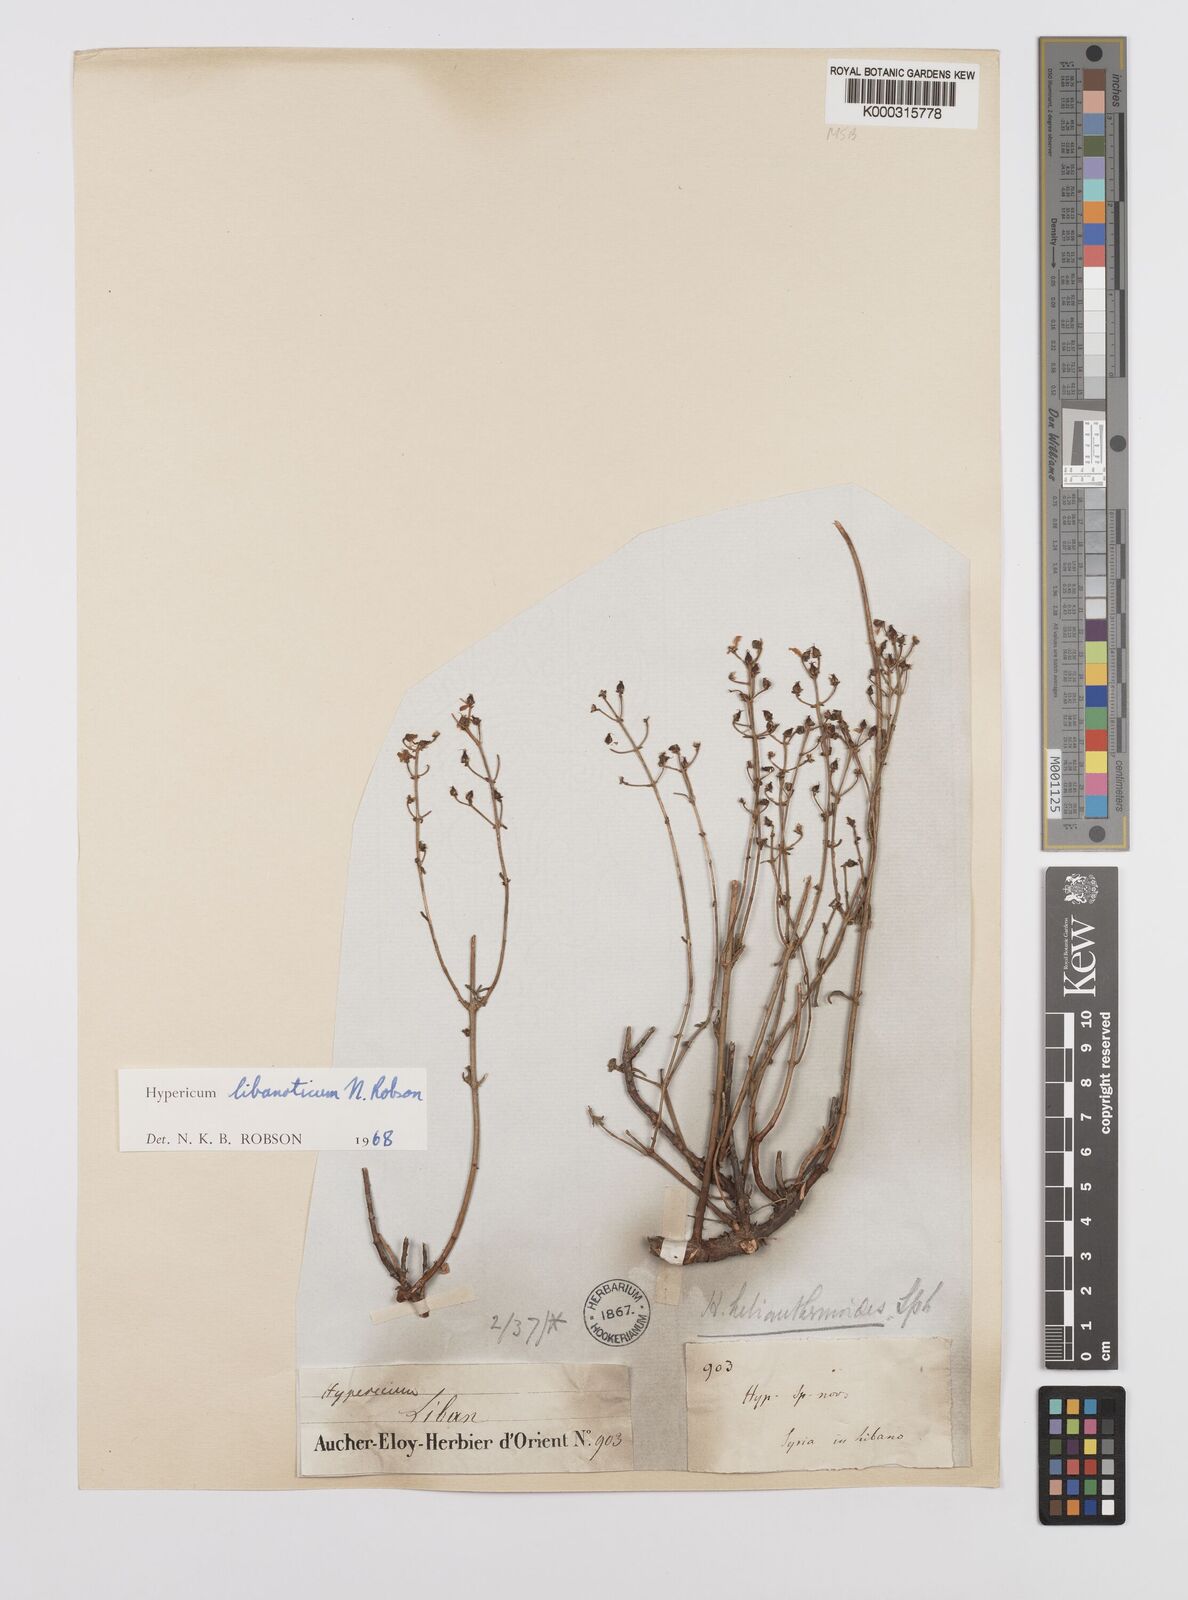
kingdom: Plantae
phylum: Tracheophyta
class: Magnoliopsida
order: Malpighiales
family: Hypericaceae
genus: Hypericum
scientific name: Hypericum libanoticum
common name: Lebanon saint john’s wort
